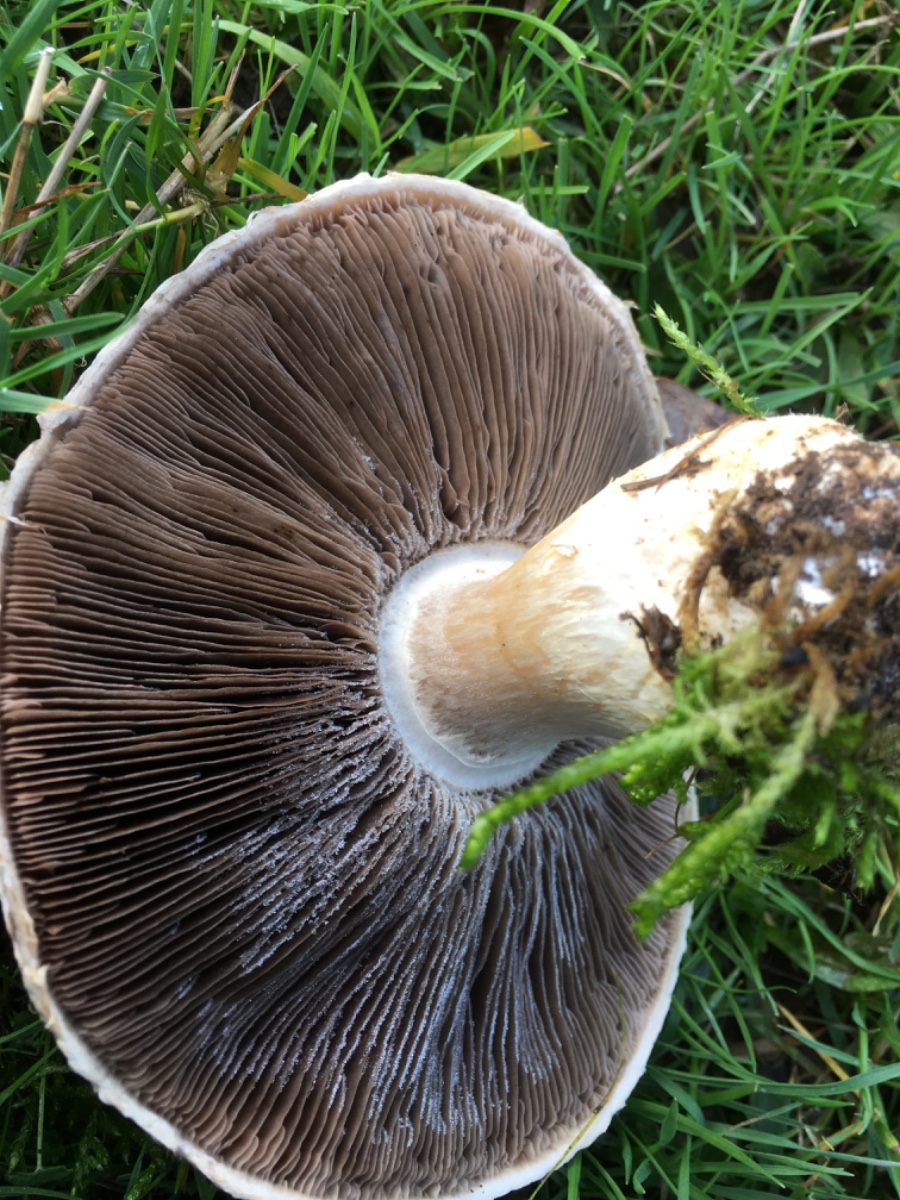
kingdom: Fungi
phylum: Basidiomycota
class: Agaricomycetes
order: Agaricales
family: Agaricaceae
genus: Agaricus
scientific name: Agaricus
